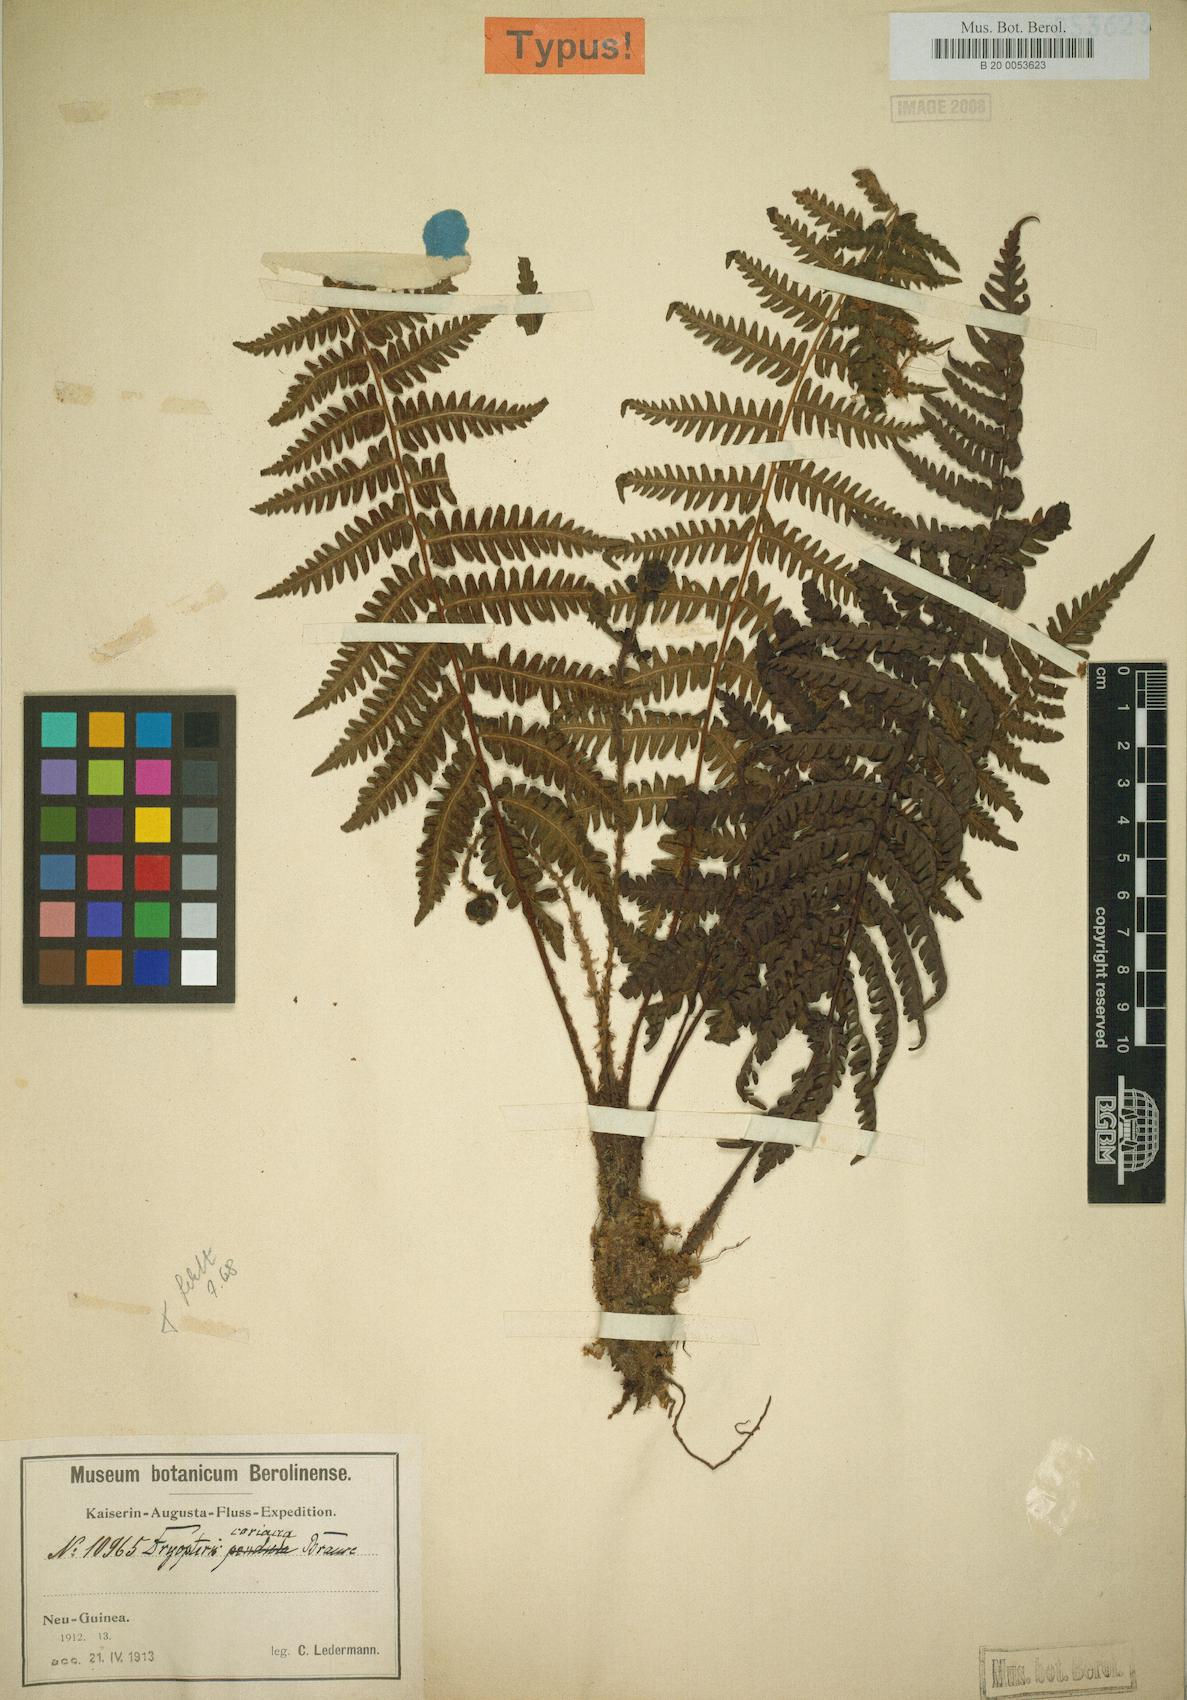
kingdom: Plantae
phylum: Tracheophyta
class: Polypodiopsida
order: Polypodiales
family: Thelypteridaceae
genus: Coryphopteris
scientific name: Coryphopteris coriacea
